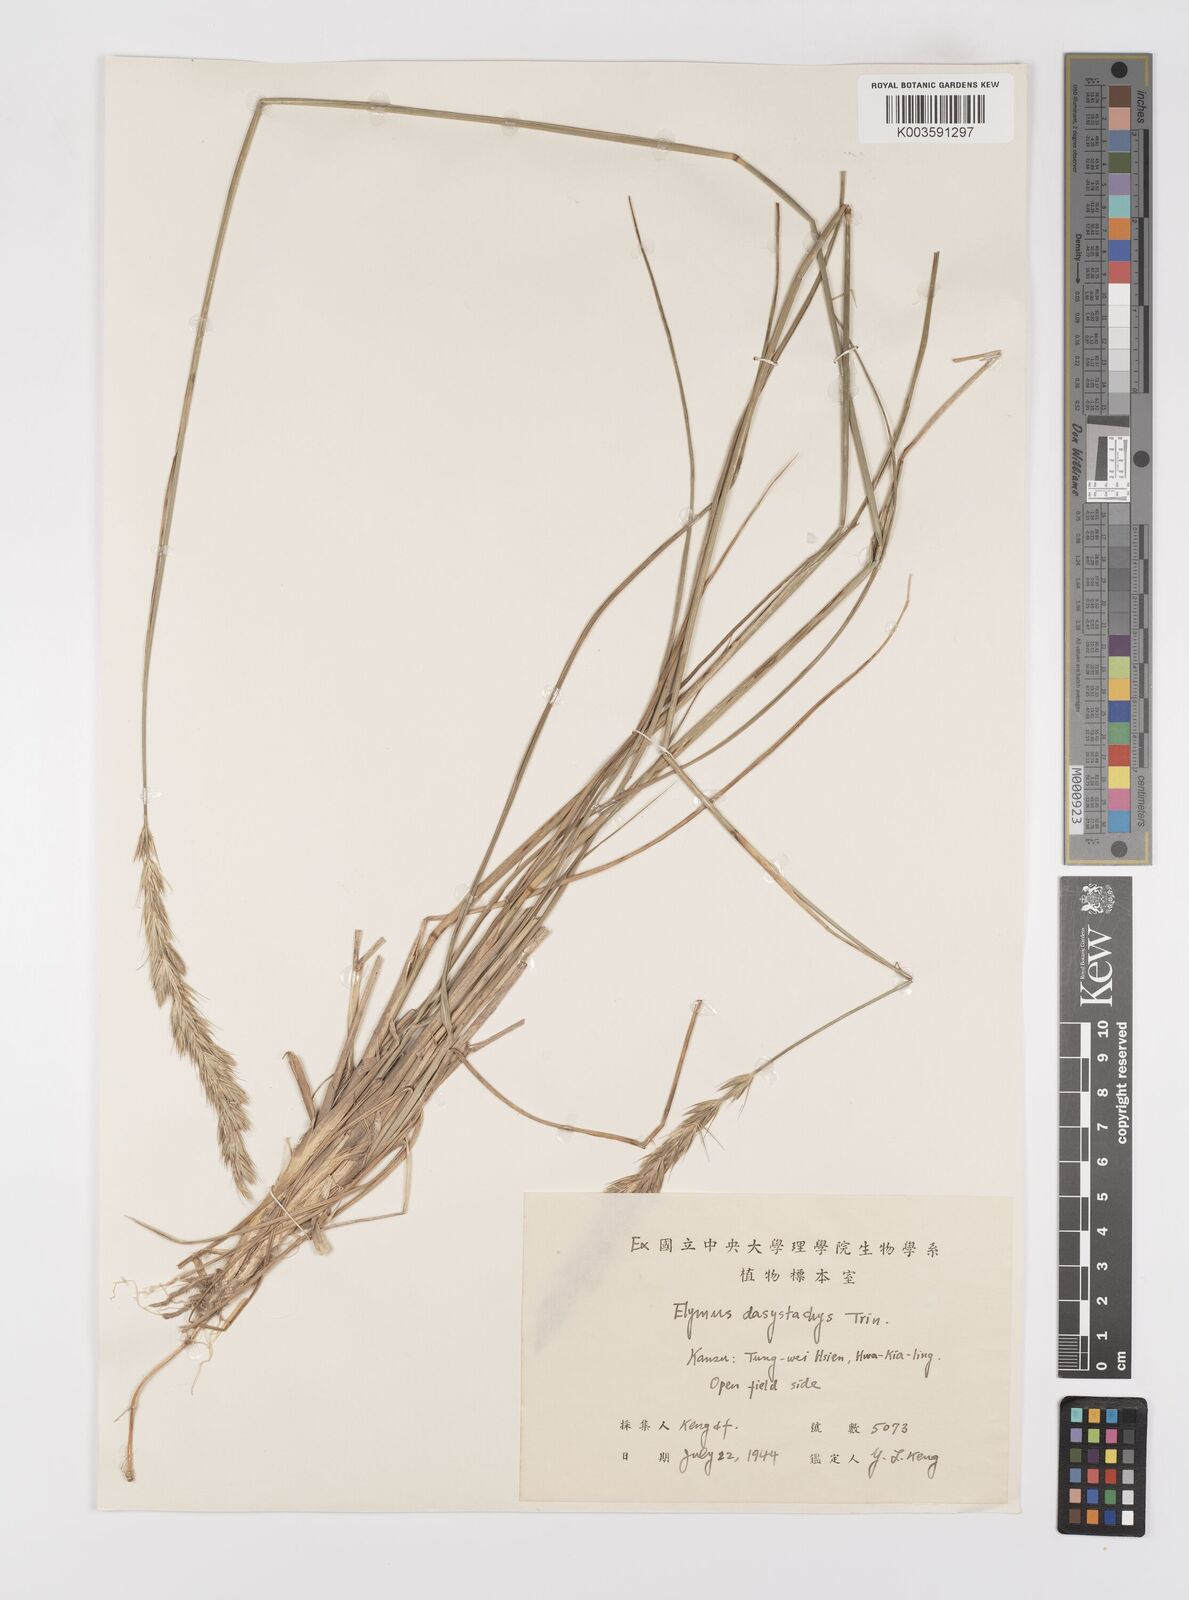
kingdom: Plantae
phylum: Tracheophyta
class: Liliopsida
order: Poales
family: Poaceae
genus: Leymus
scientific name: Leymus secalinus
